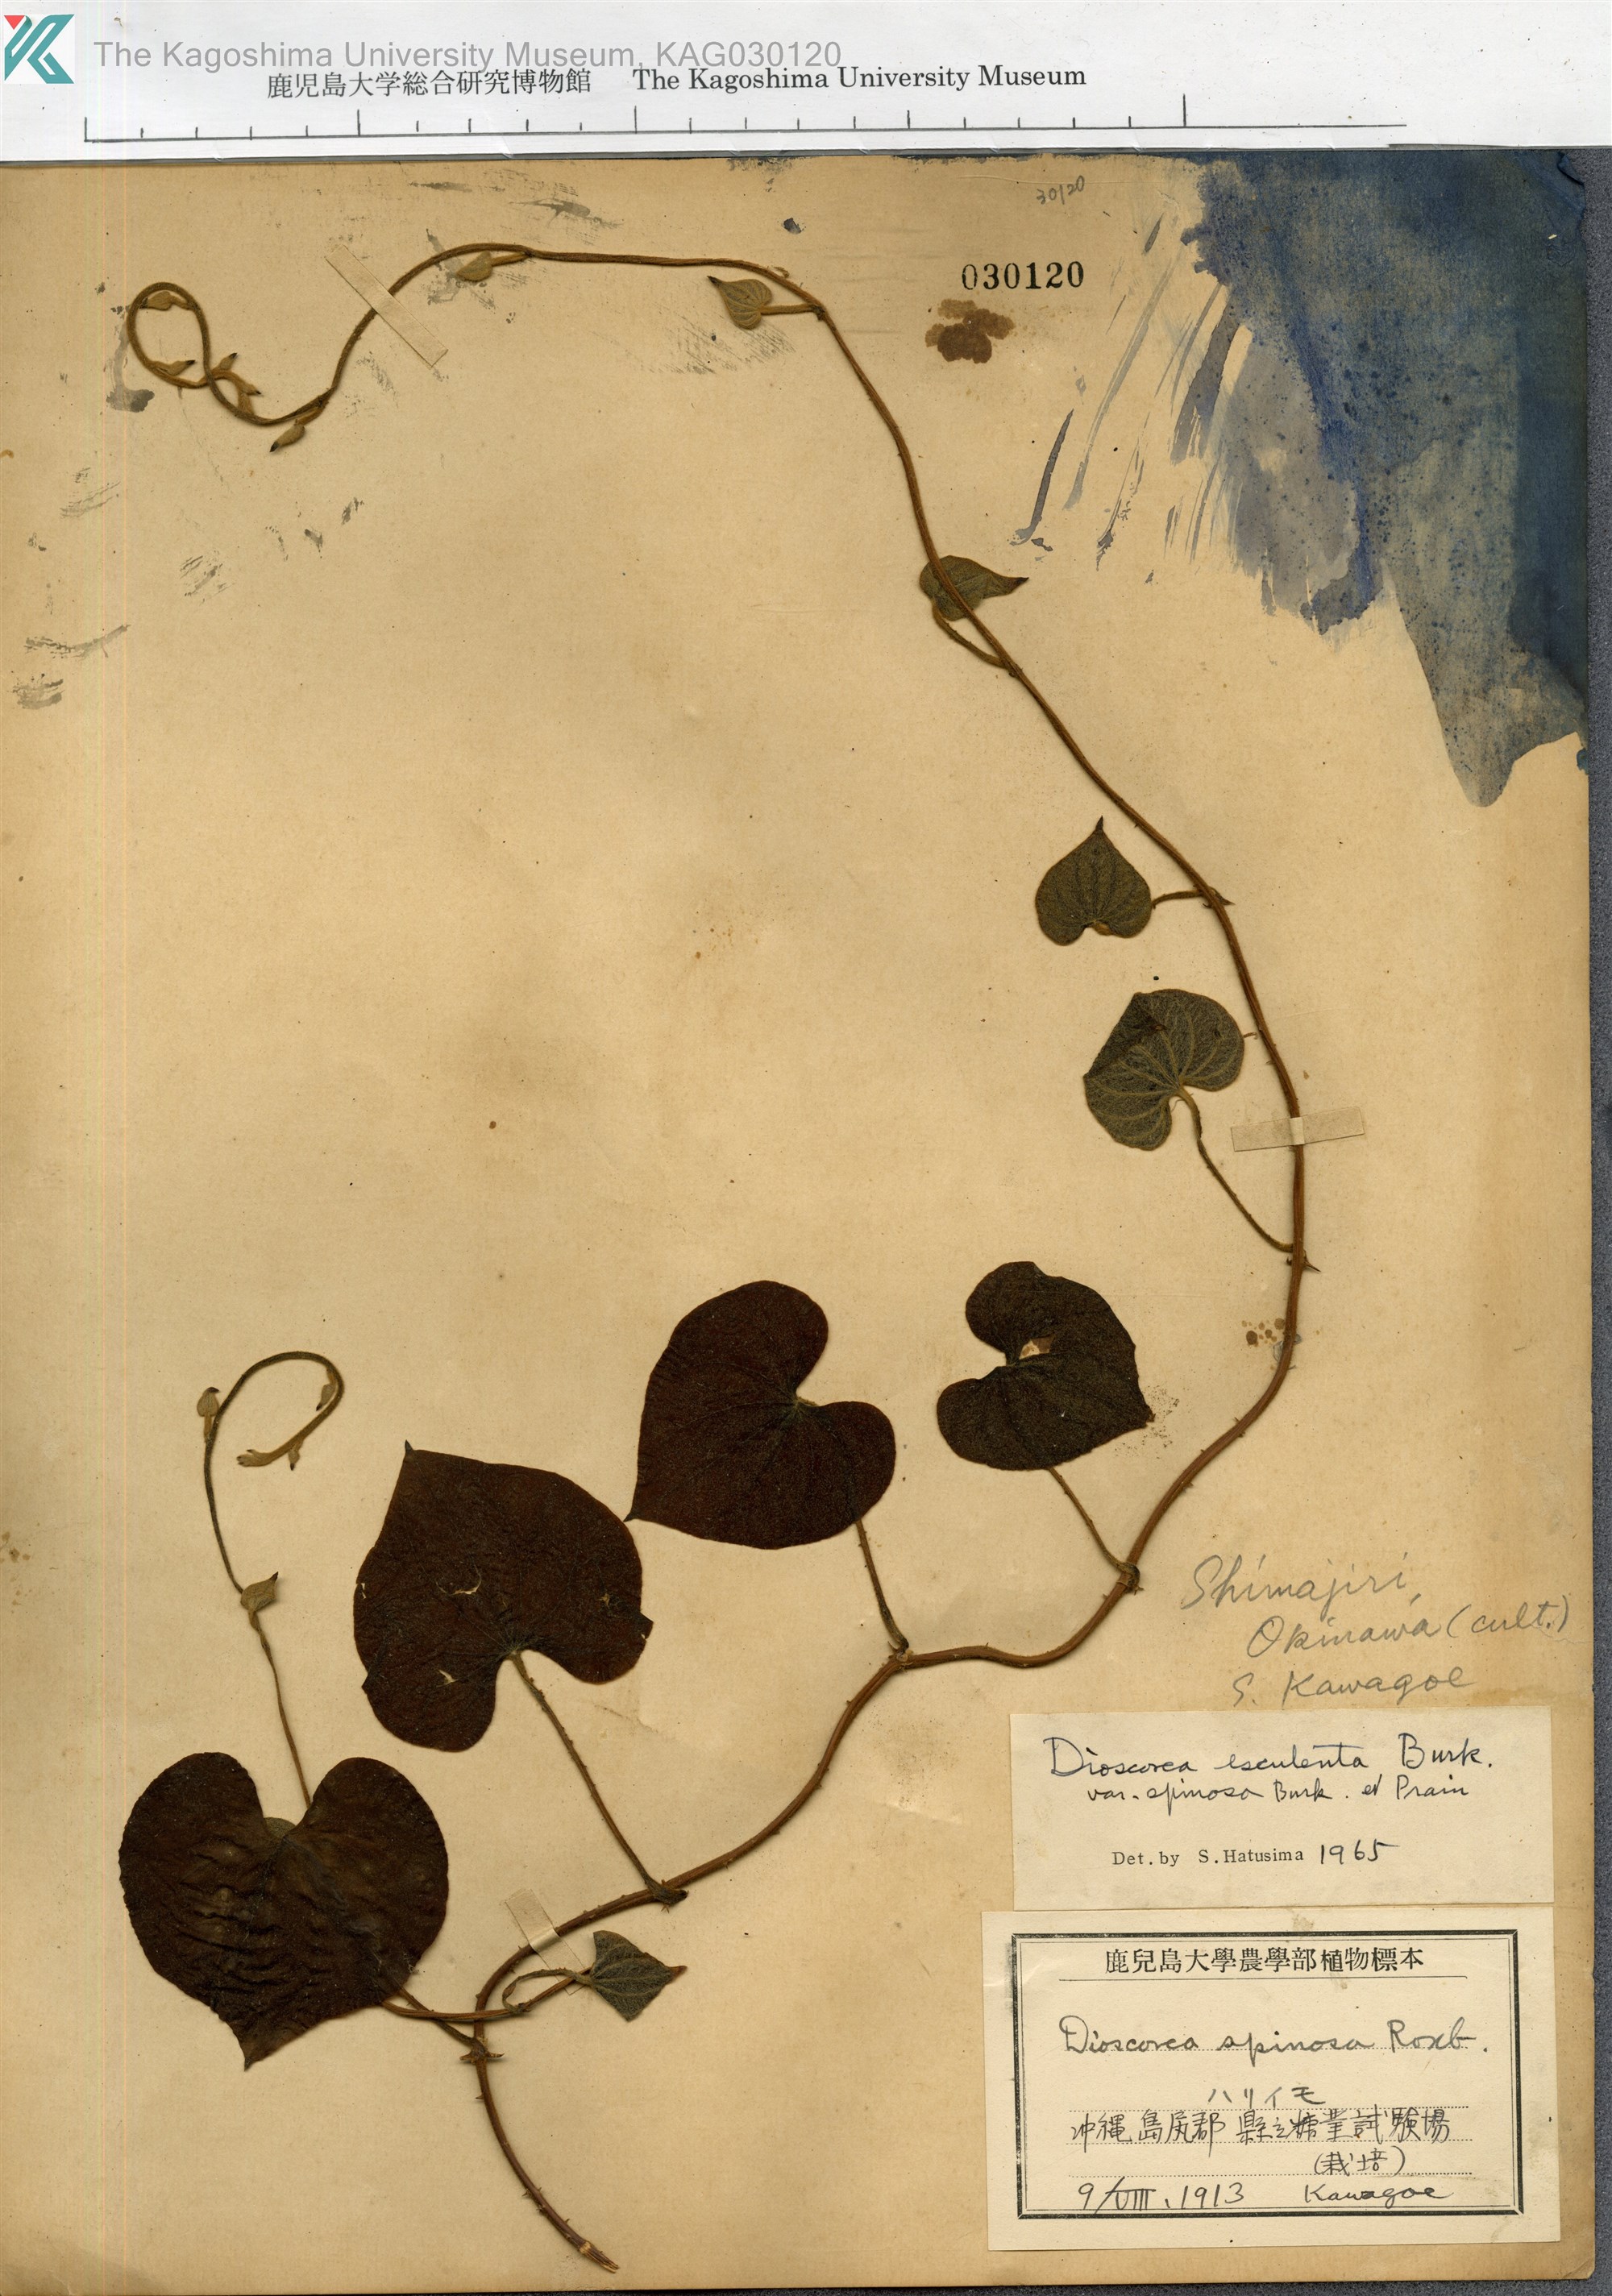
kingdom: Plantae
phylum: Tracheophyta
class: Liliopsida
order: Dioscoreales
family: Dioscoreaceae
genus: Dioscorea
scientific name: Dioscorea esculenta
